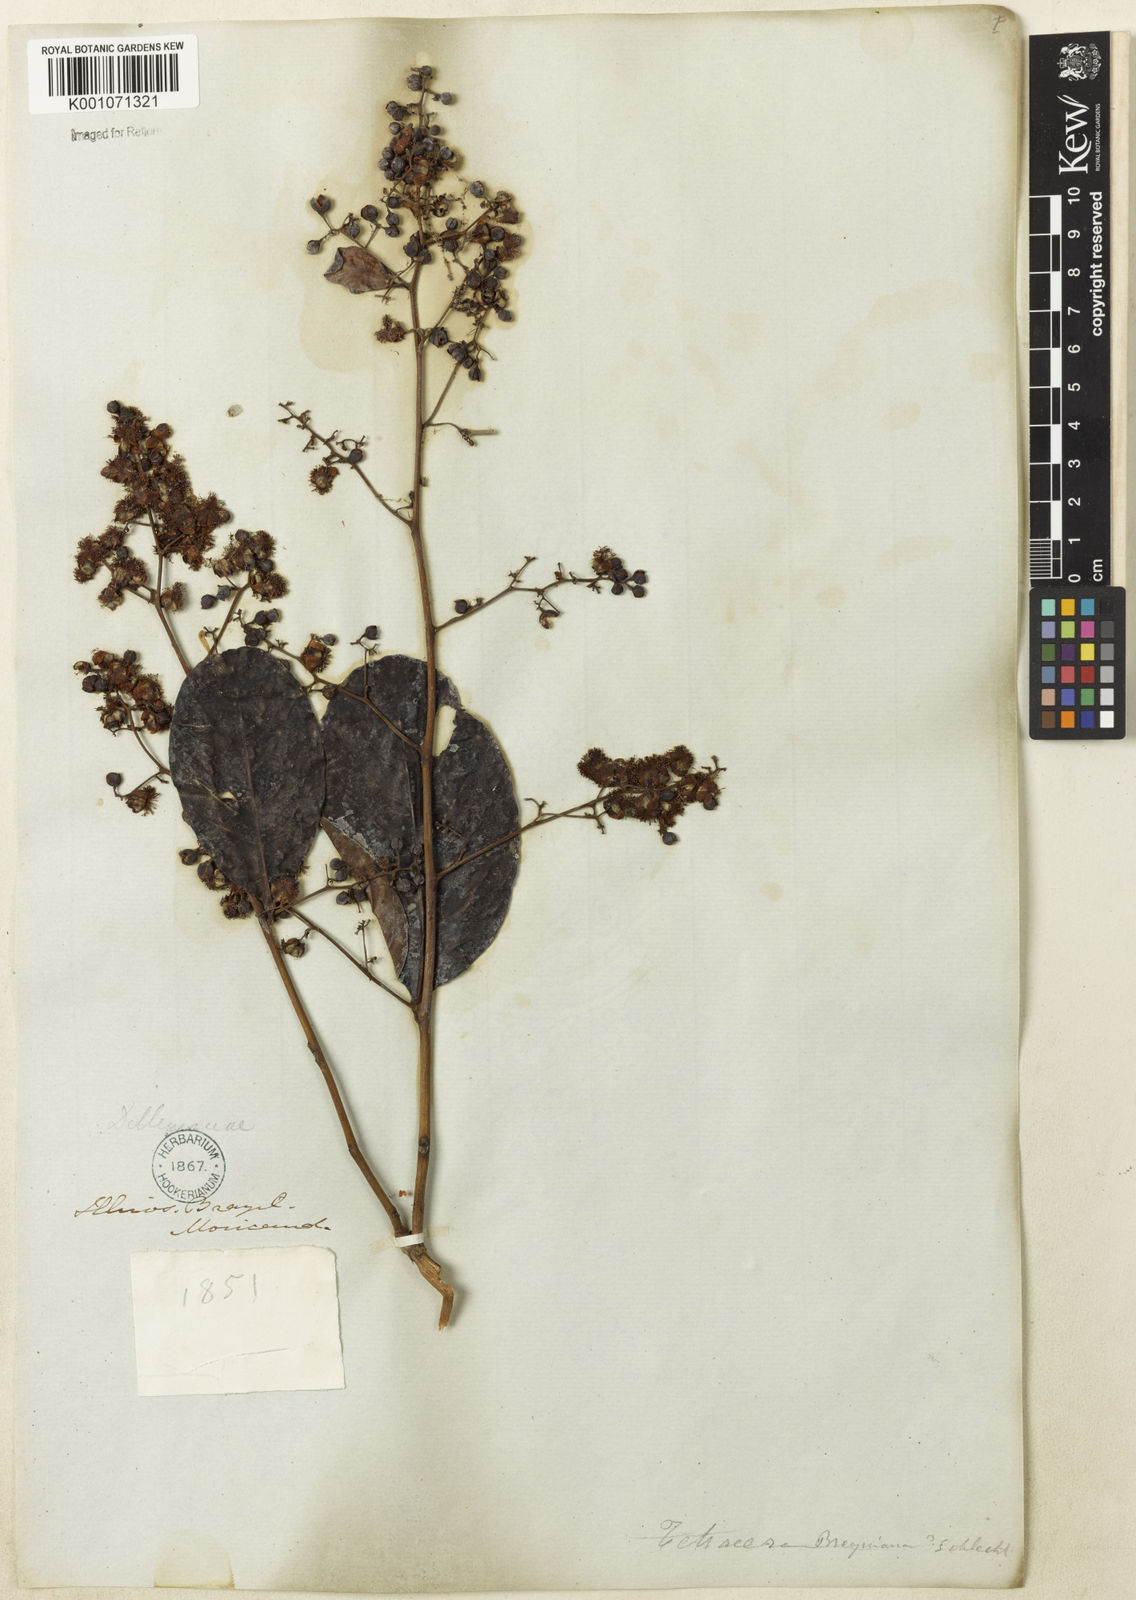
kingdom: Plantae
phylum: Tracheophyta
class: Magnoliopsida
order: Dilleniales
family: Dilleniaceae
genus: Tetracera
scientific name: Tetracera breyniana
